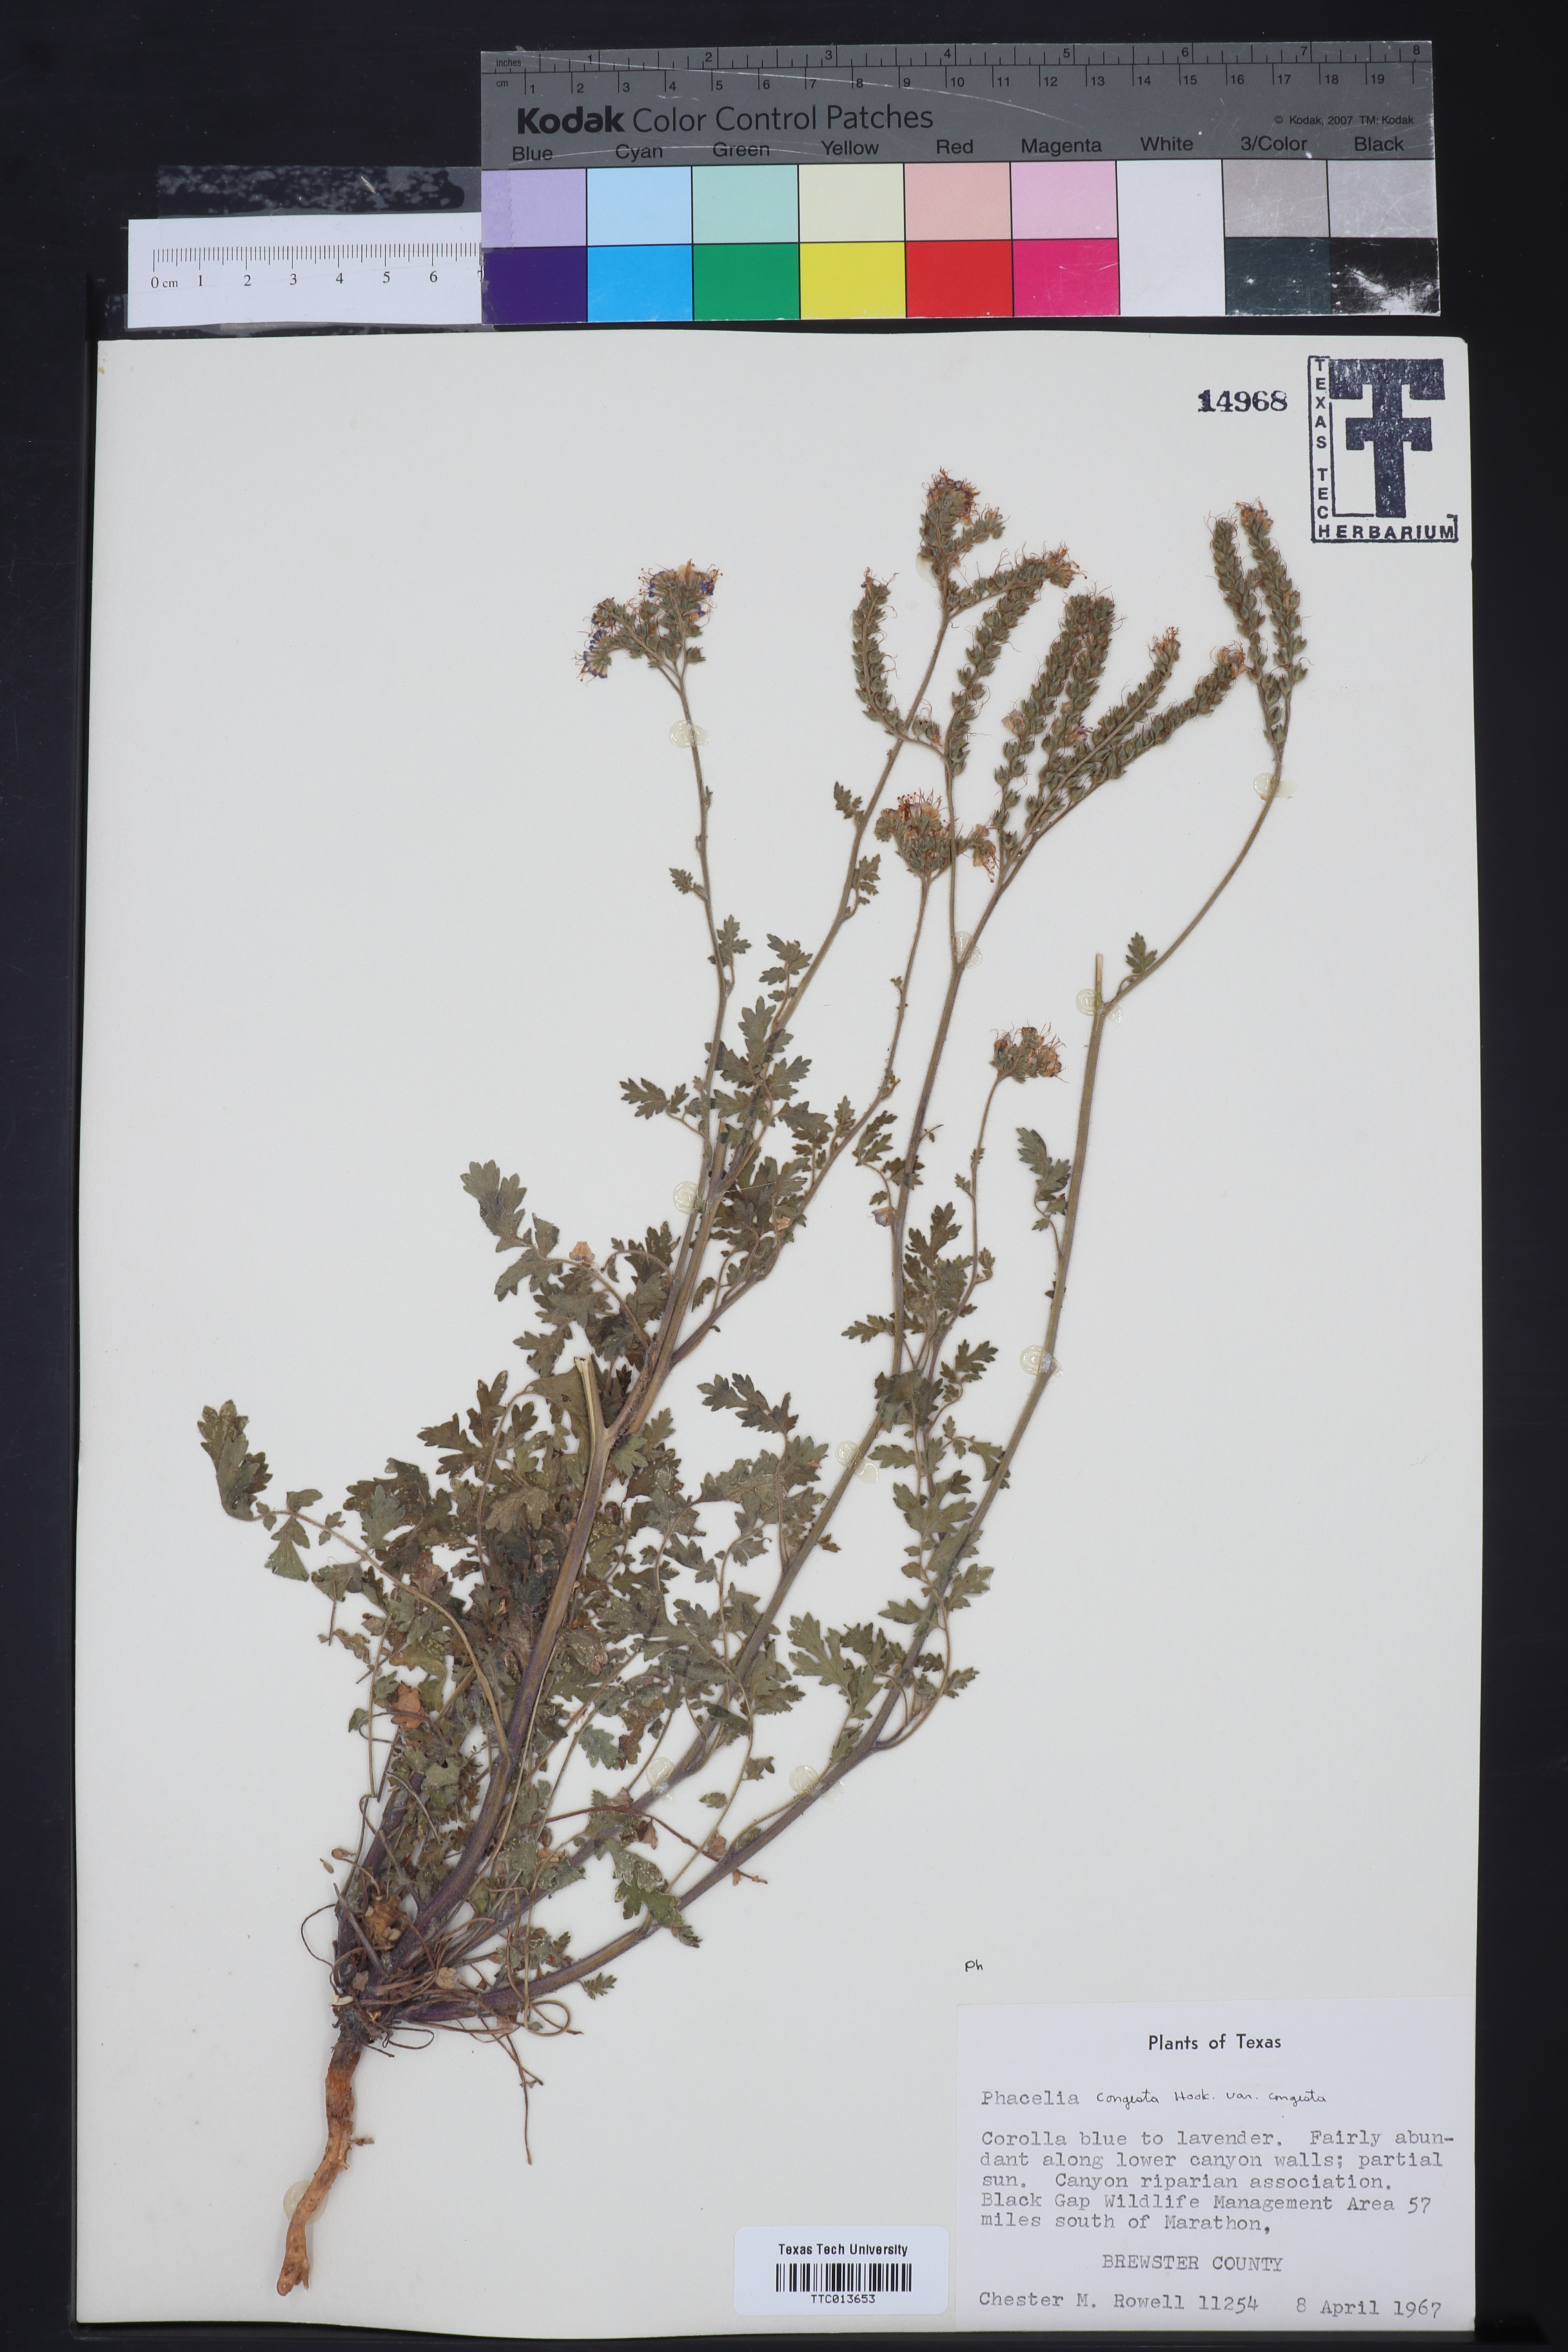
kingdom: Plantae
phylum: Tracheophyta
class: Magnoliopsida
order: Boraginales
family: Hydrophyllaceae
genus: Phacelia
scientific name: Phacelia
